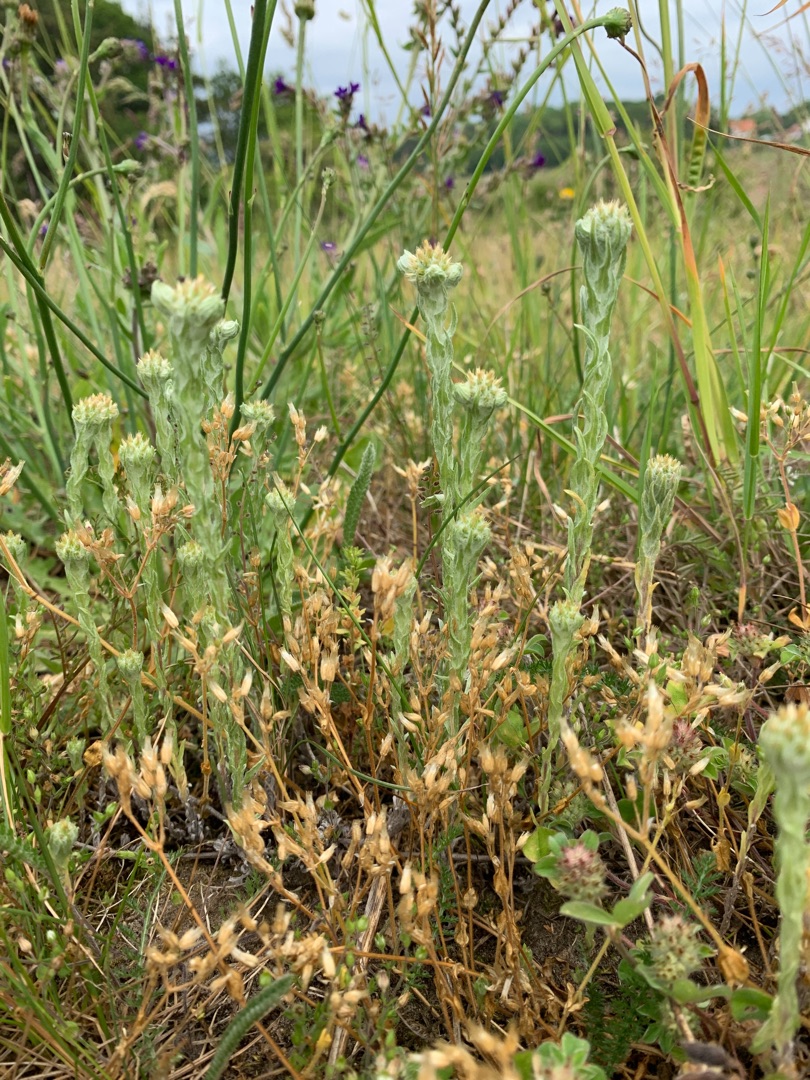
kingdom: Plantae
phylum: Tracheophyta
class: Magnoliopsida
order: Asterales
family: Asteraceae
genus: Filago
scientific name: Filago germanica
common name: Kugle-museurt
